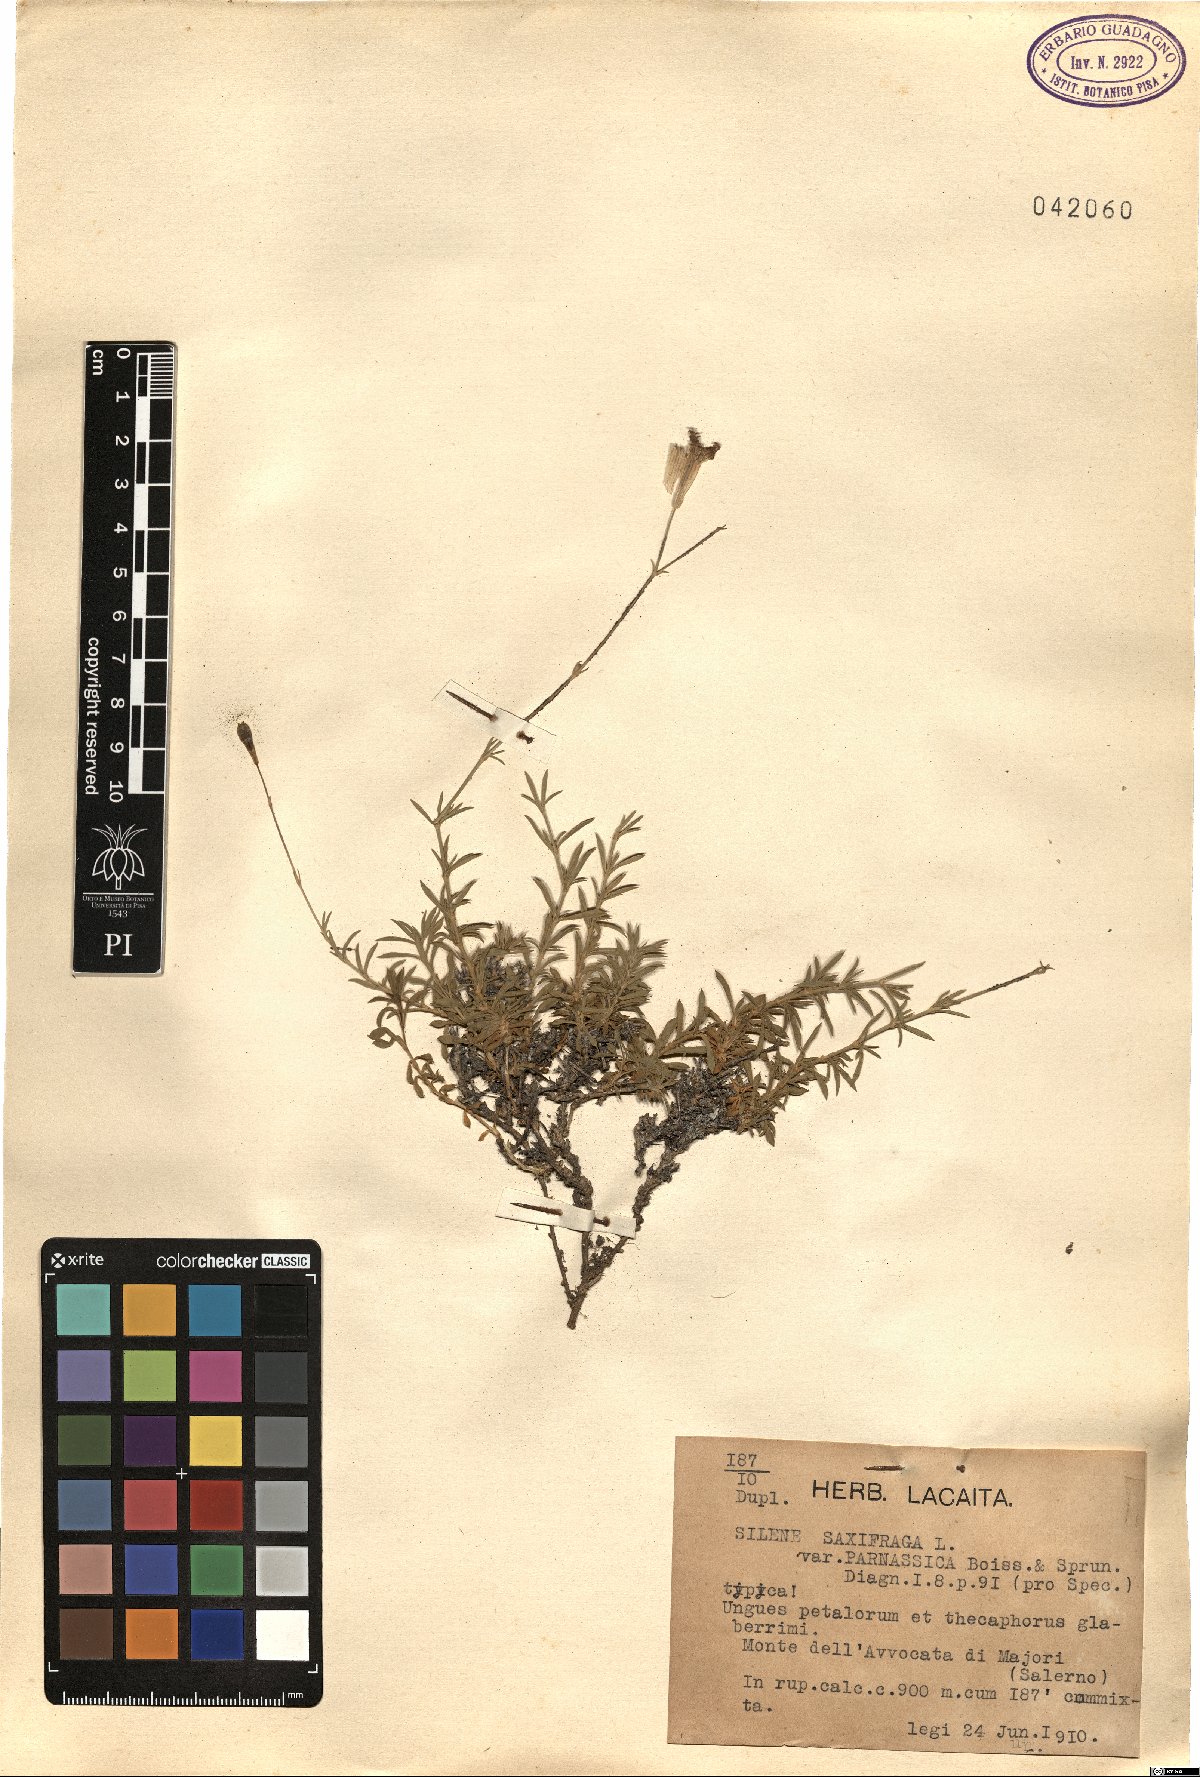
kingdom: Plantae
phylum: Tracheophyta
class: Magnoliopsida
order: Caryophyllales
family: Caryophyllaceae
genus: Silene
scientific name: Silene parnassica
